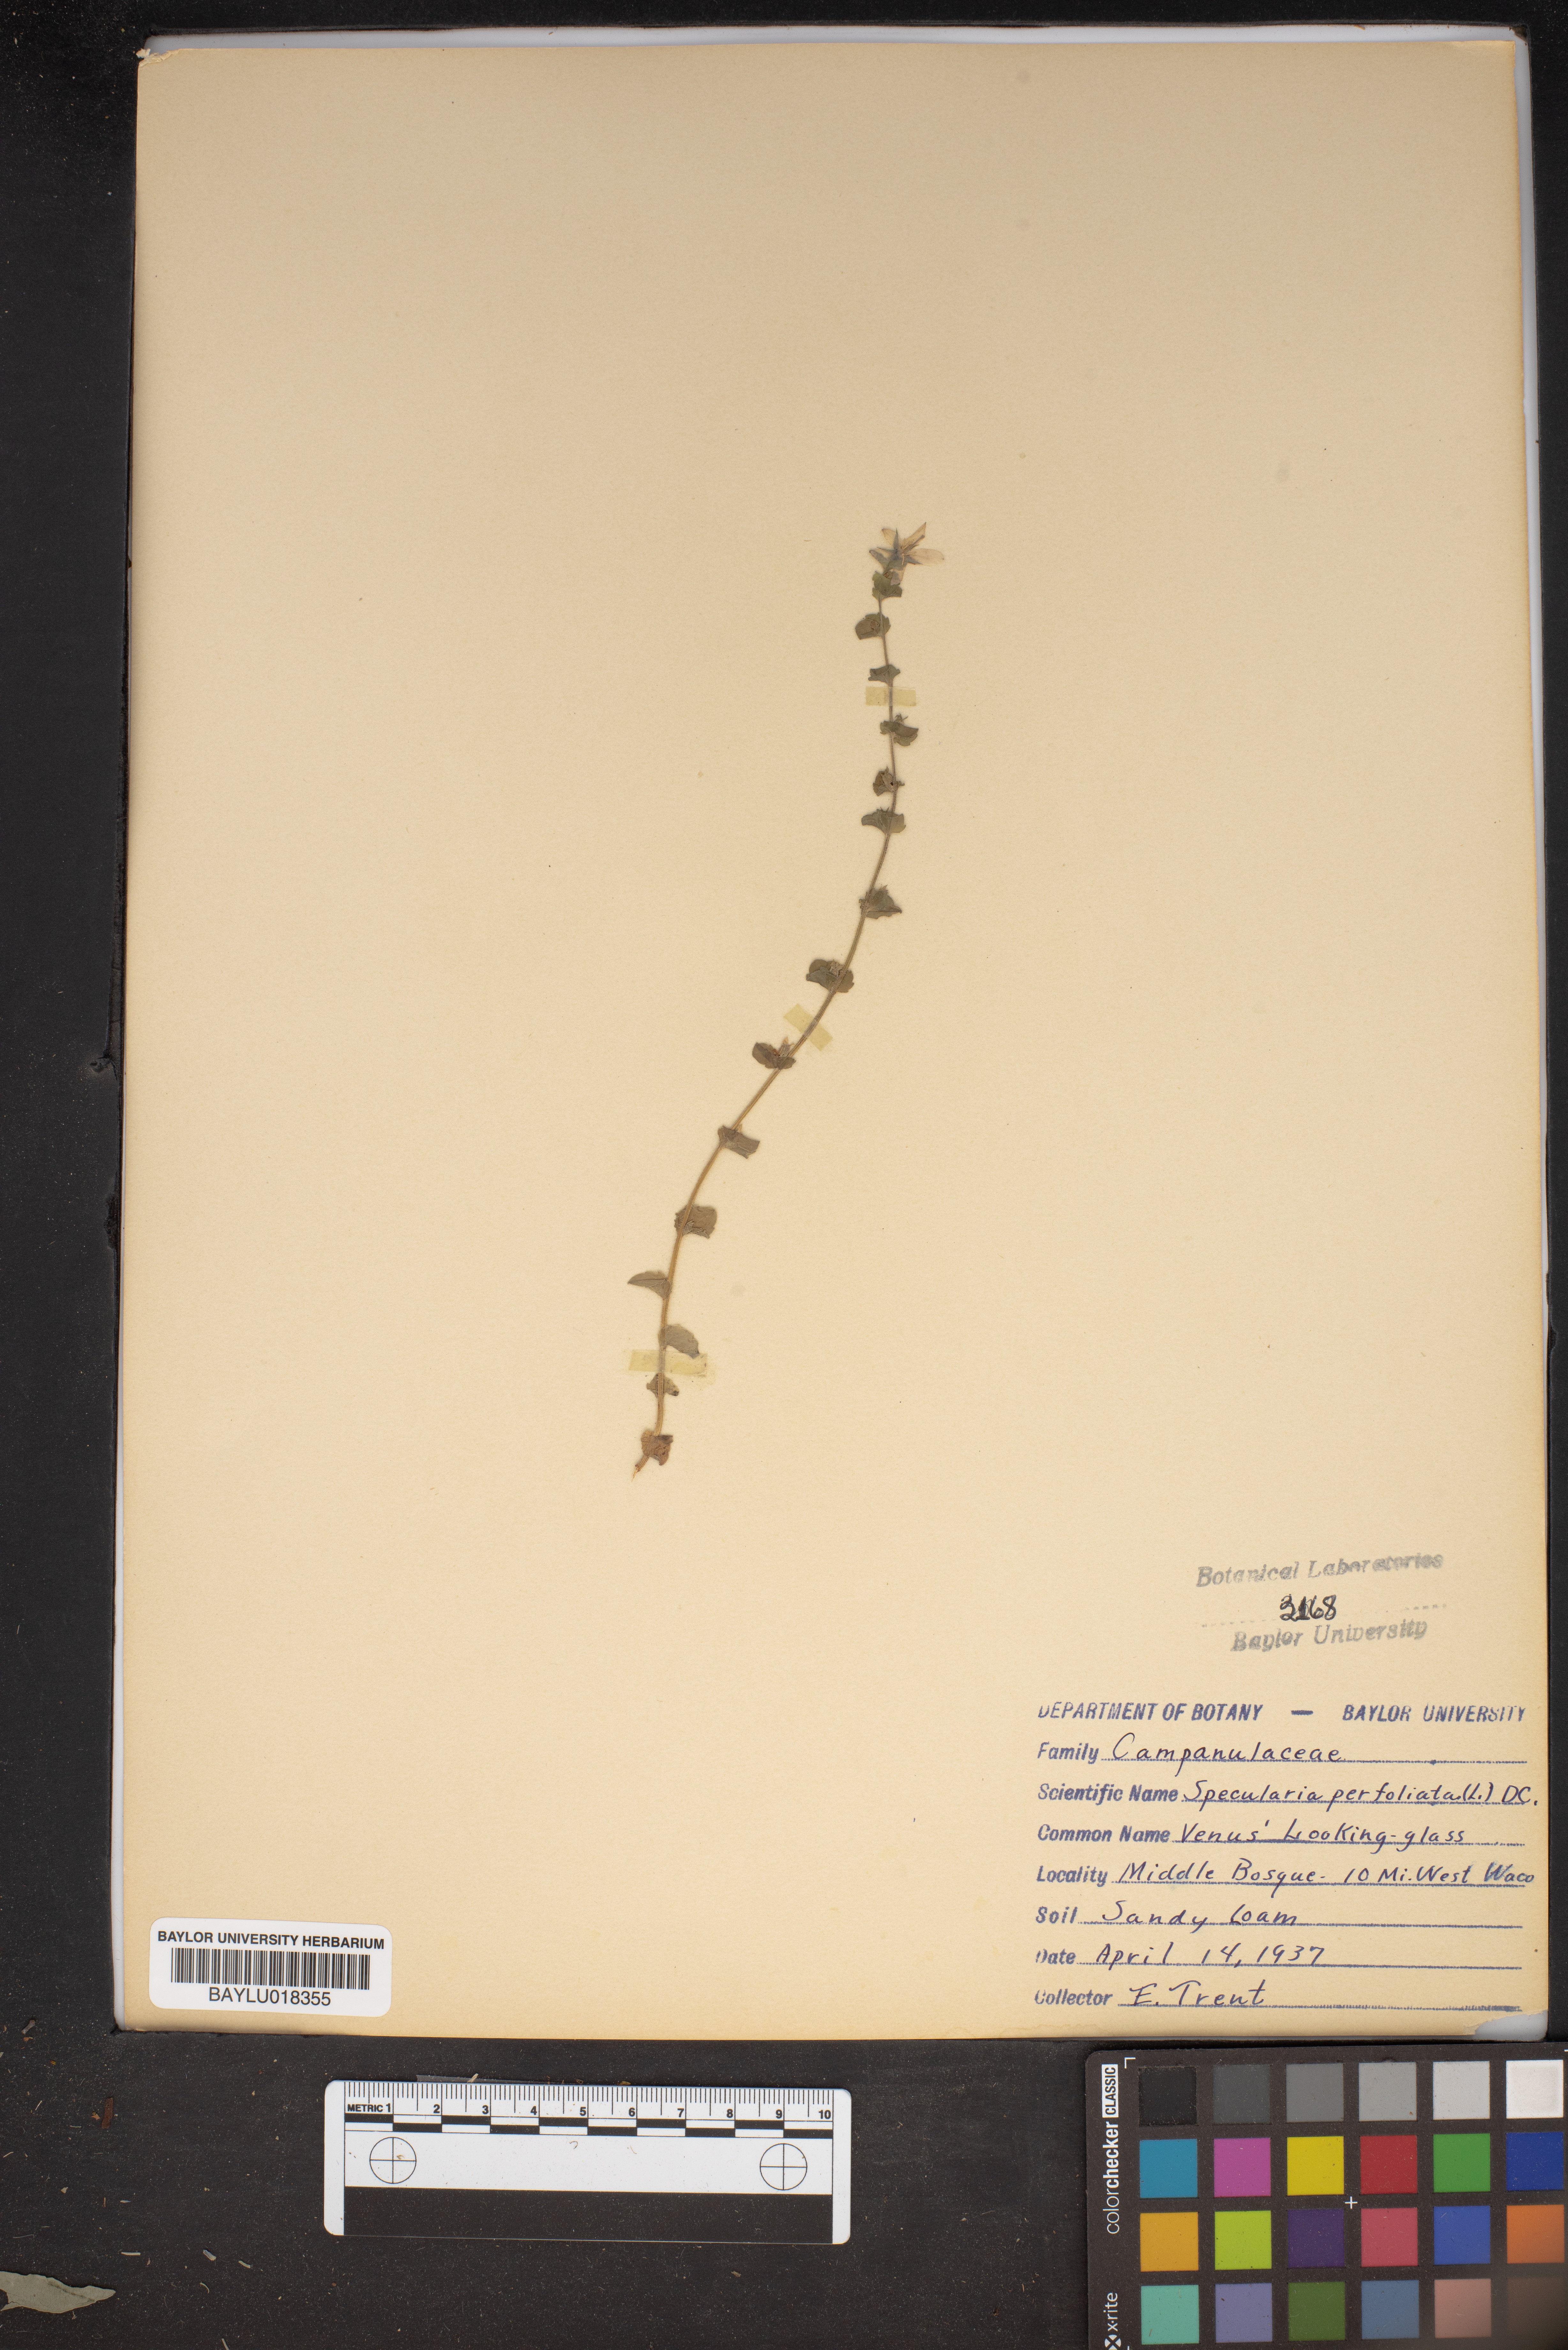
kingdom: Plantae
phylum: Tracheophyta
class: Magnoliopsida
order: Asterales
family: Campanulaceae
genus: Triodanis
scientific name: Triodanis perfoliata
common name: Clasping venus' looking-glass
